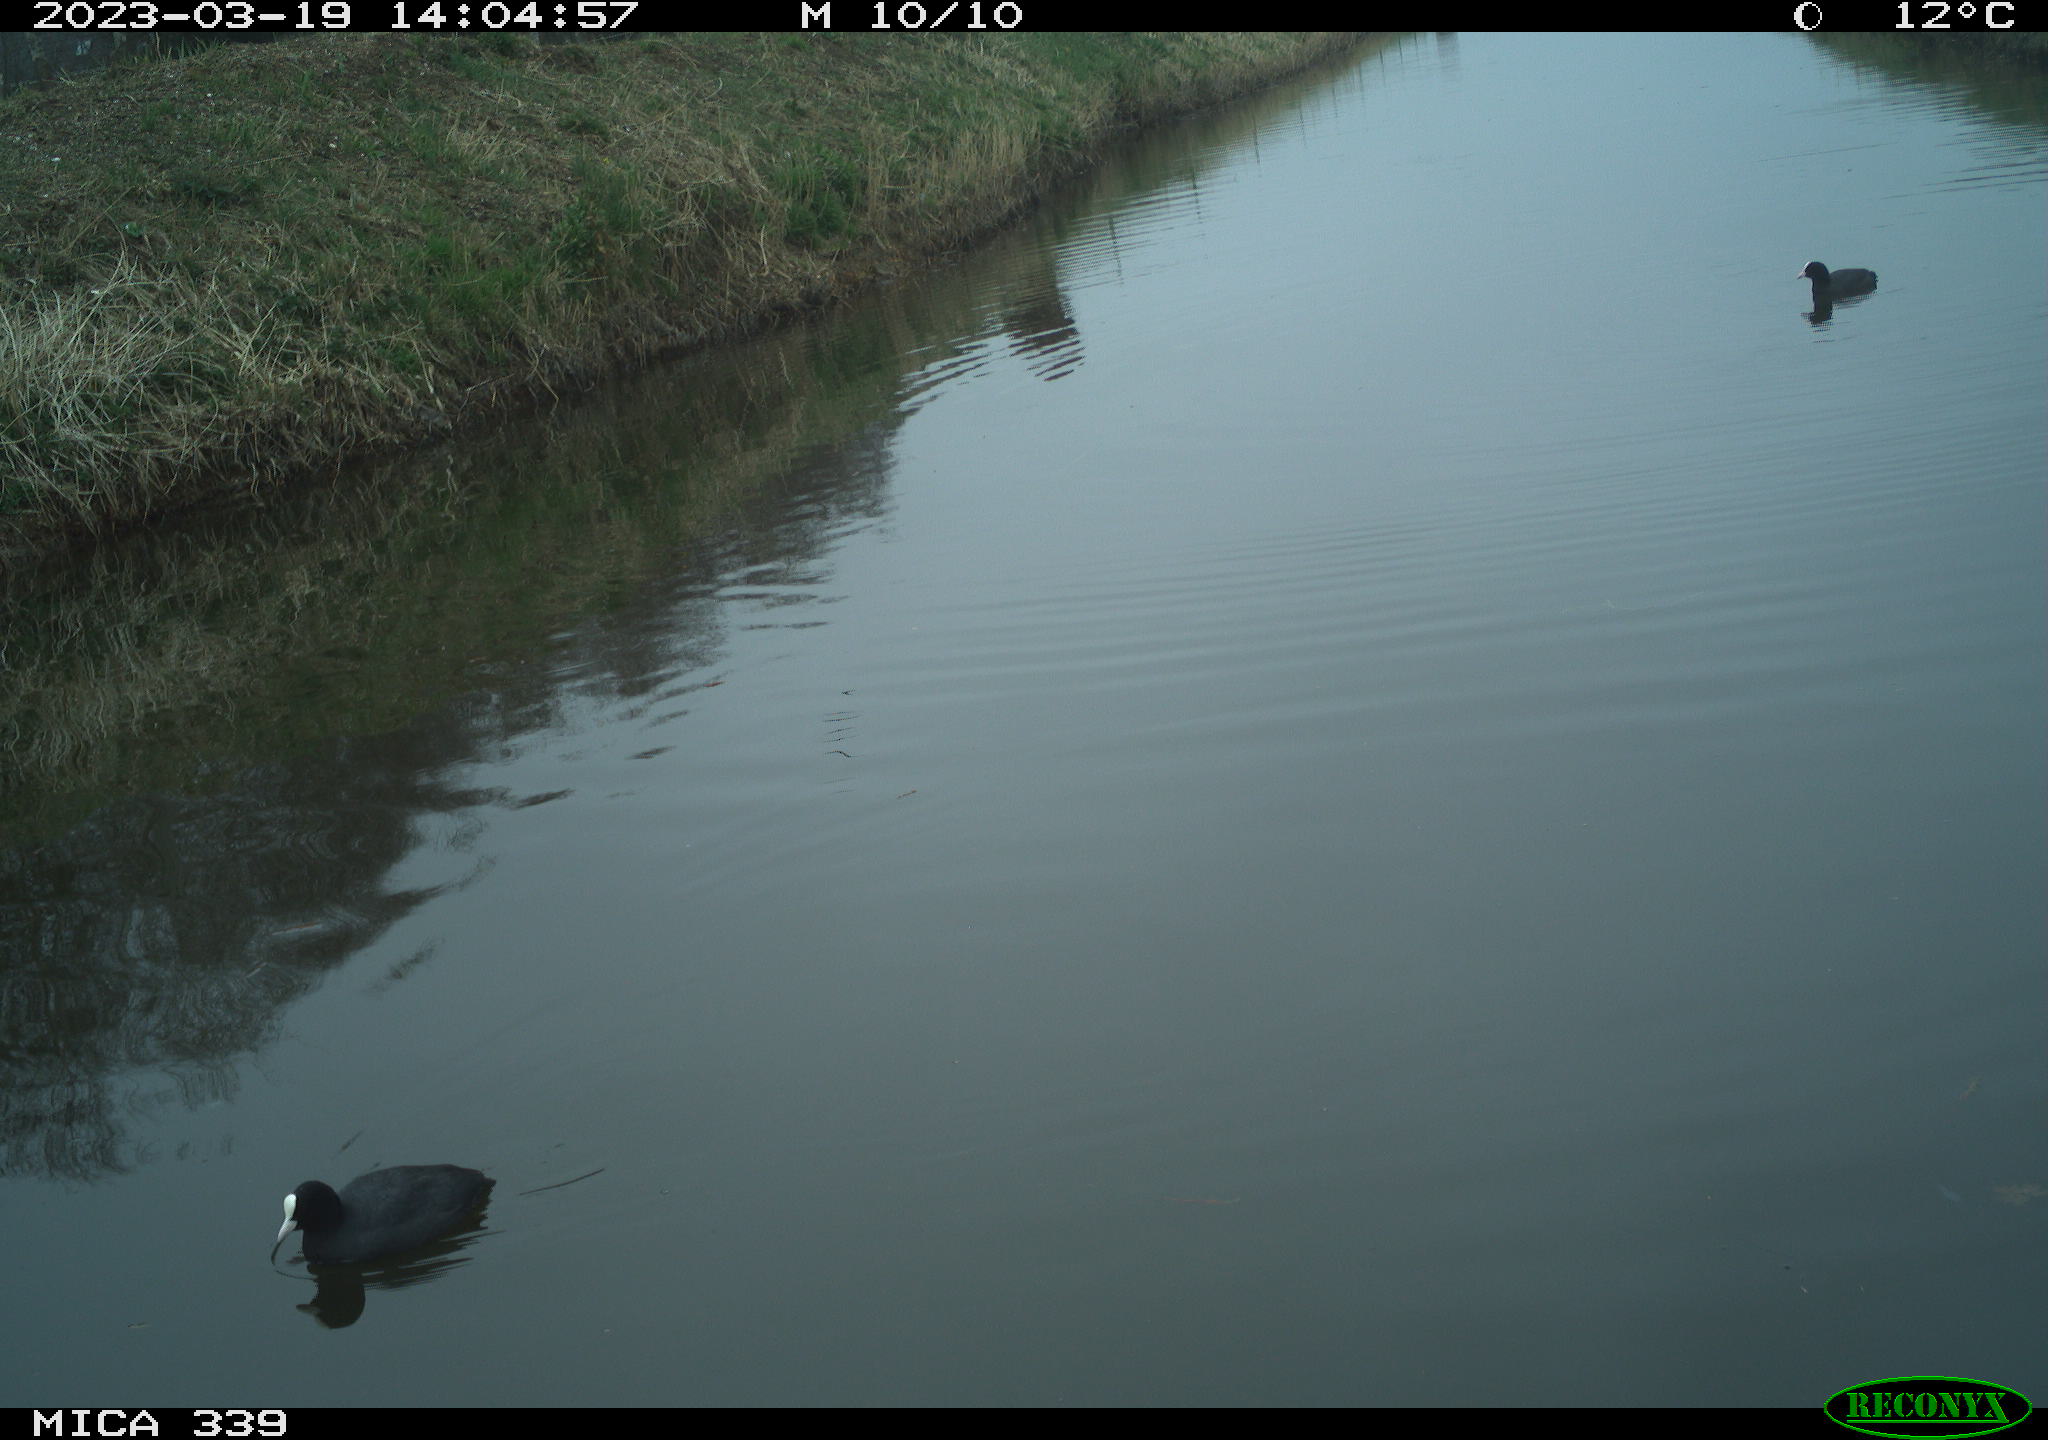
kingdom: Animalia
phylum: Chordata
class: Aves
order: Gruiformes
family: Rallidae
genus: Fulica
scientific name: Fulica atra
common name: Eurasian coot
